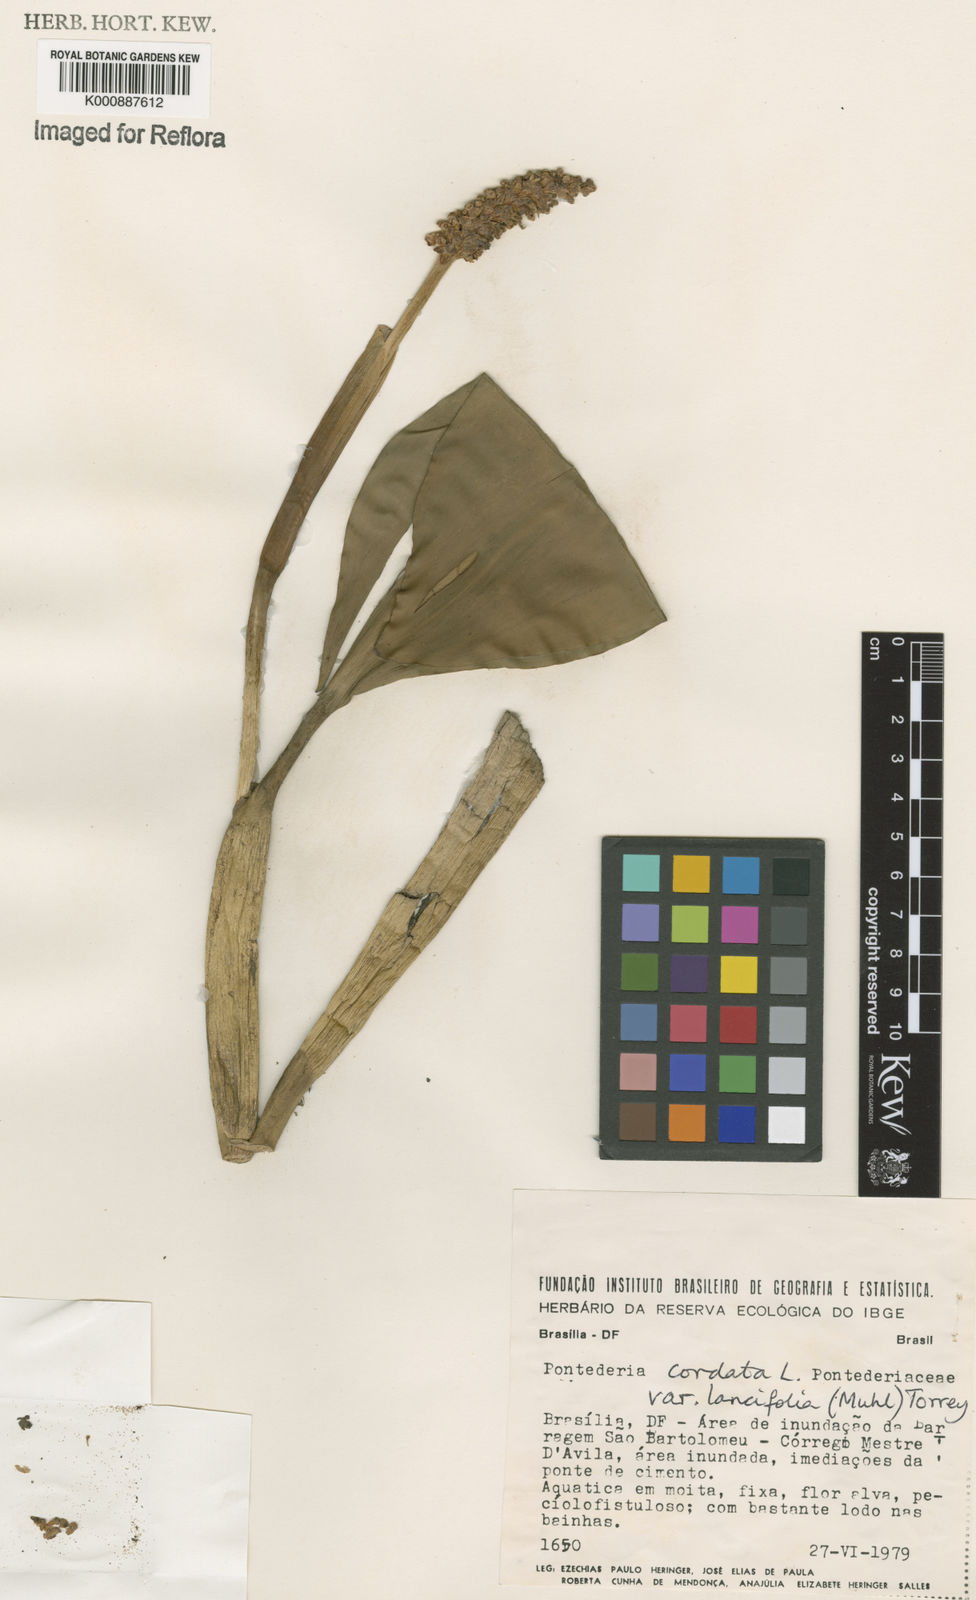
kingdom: Plantae
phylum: Tracheophyta
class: Liliopsida
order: Commelinales
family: Pontederiaceae
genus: Pontederia
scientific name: Pontederia cordata
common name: Pickerelweed
